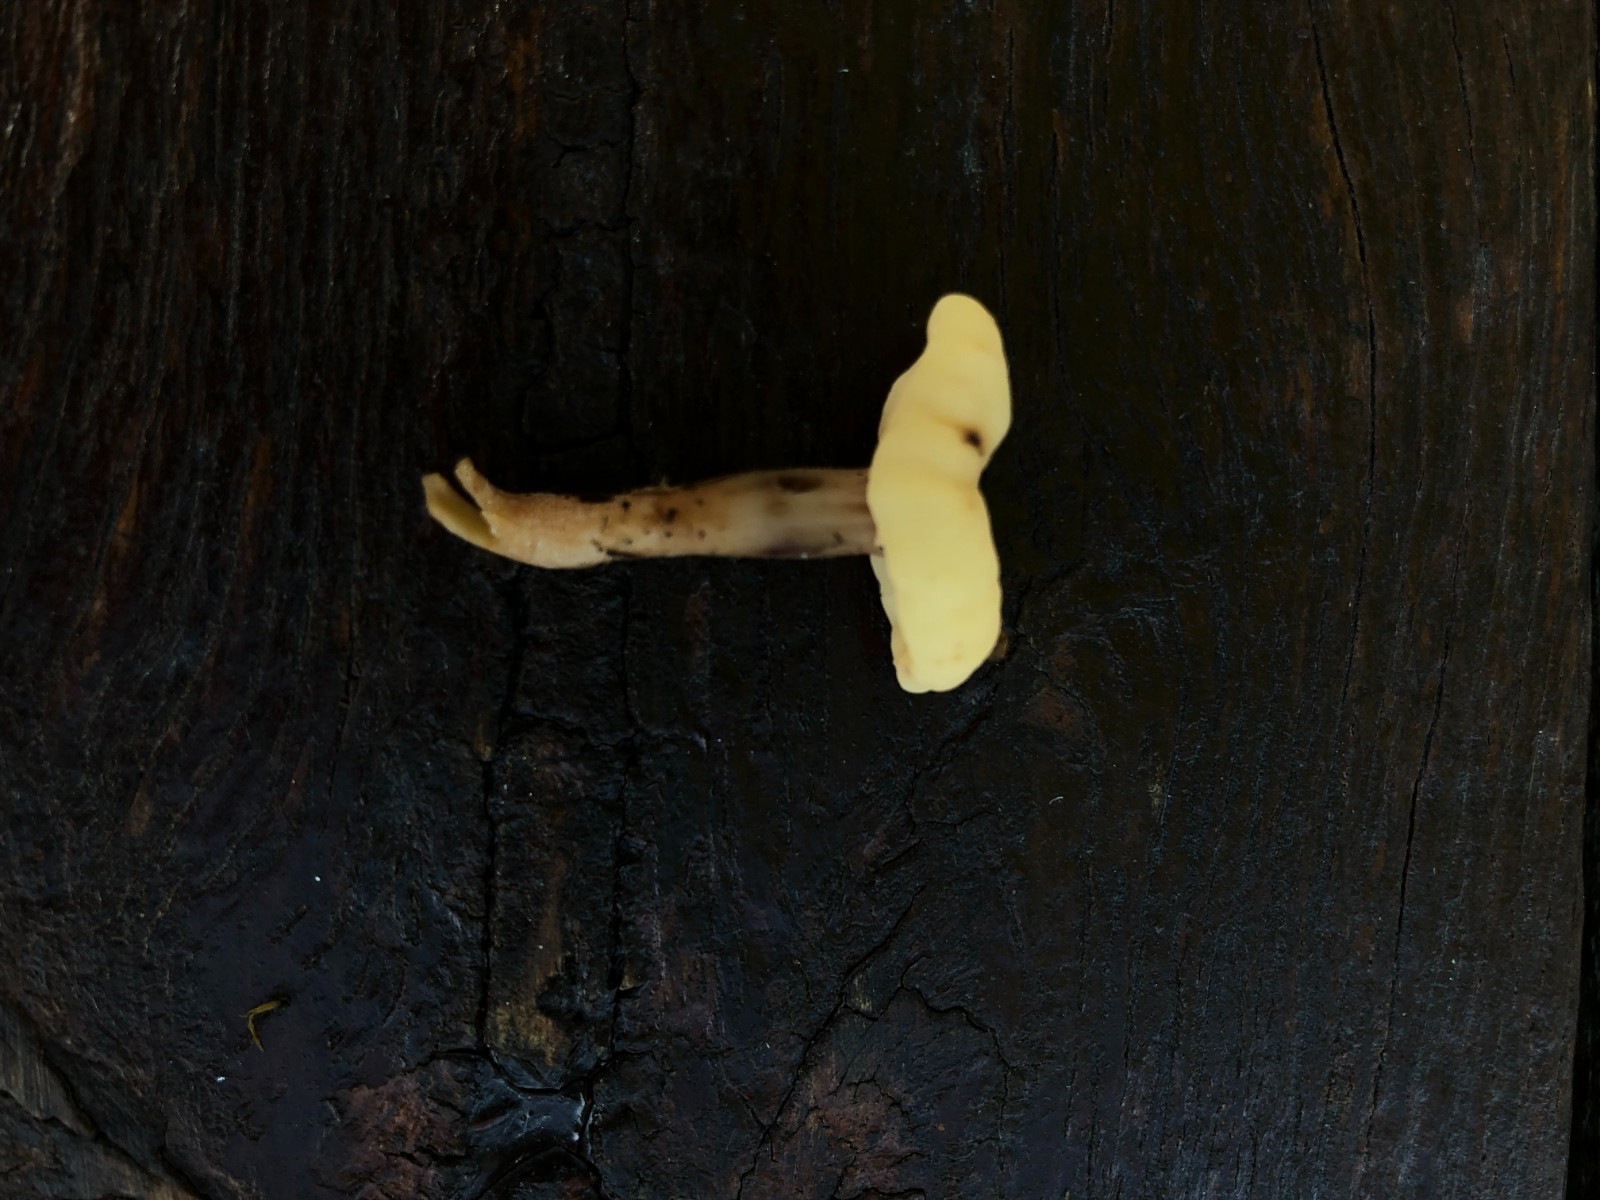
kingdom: Fungi
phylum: Ascomycota
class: Leotiomycetes
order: Rhytismatales
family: Cudoniaceae
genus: Cudonia
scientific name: Cudonia circinans
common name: hekserings-hjelmmorkel
